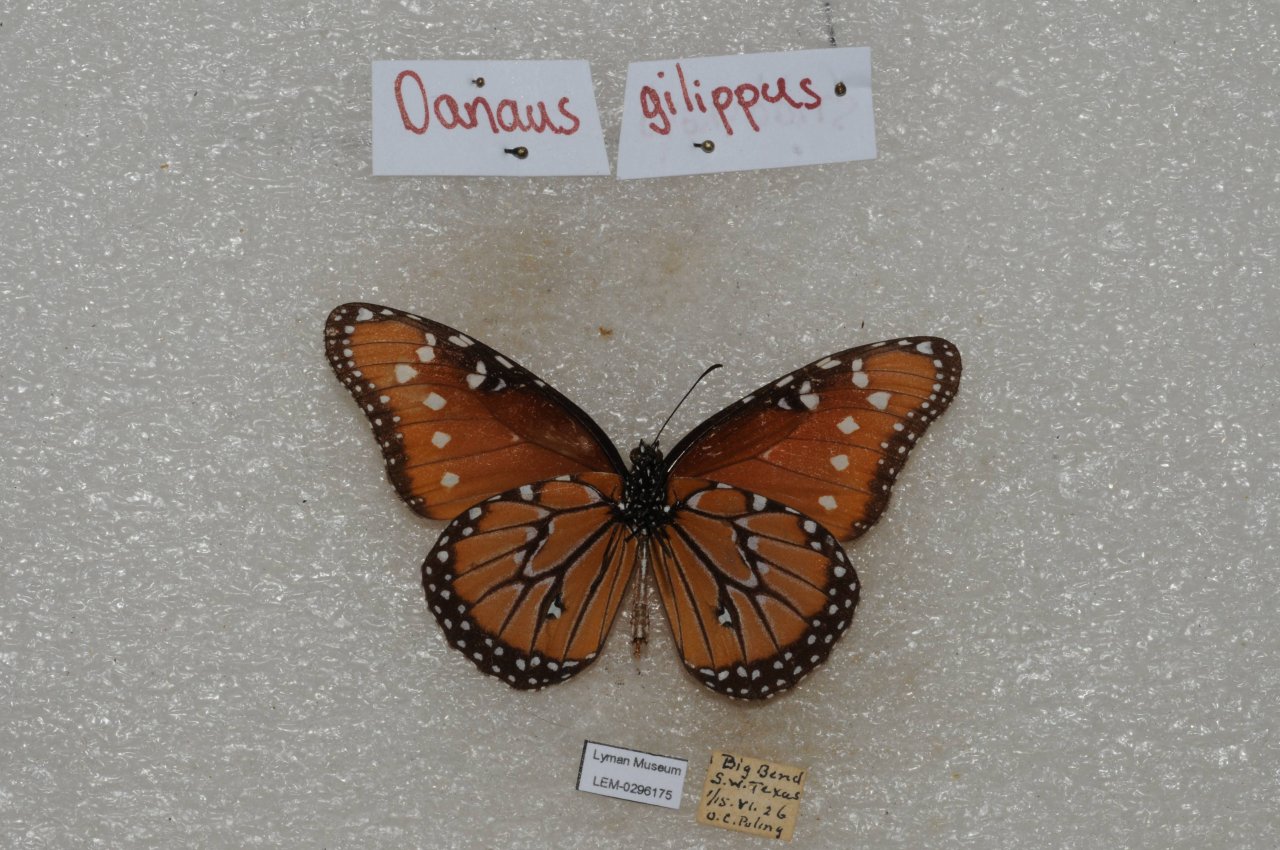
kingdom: Animalia
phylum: Arthropoda
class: Insecta
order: Lepidoptera
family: Nymphalidae
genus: Danaus
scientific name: Danaus gilippus
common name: Queen
